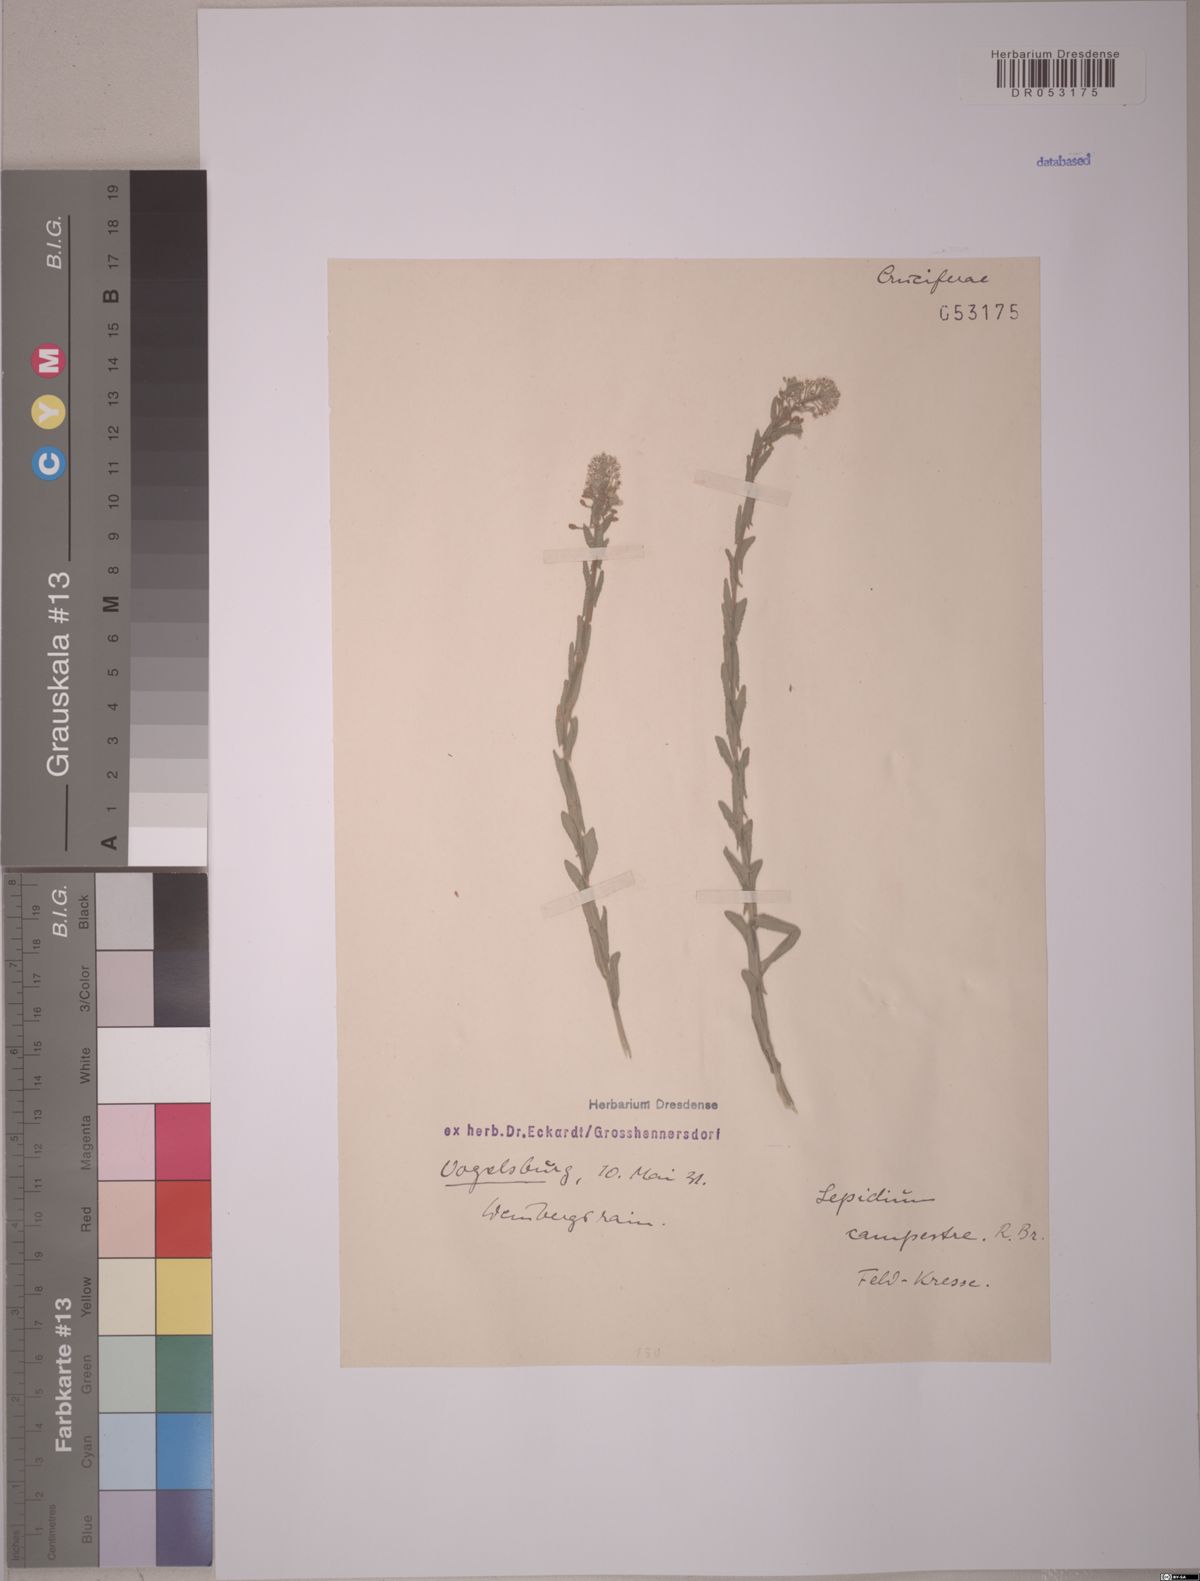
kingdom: Plantae
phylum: Tracheophyta
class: Magnoliopsida
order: Brassicales
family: Brassicaceae
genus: Lepidium
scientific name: Lepidium campestre
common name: Field pepperwort
